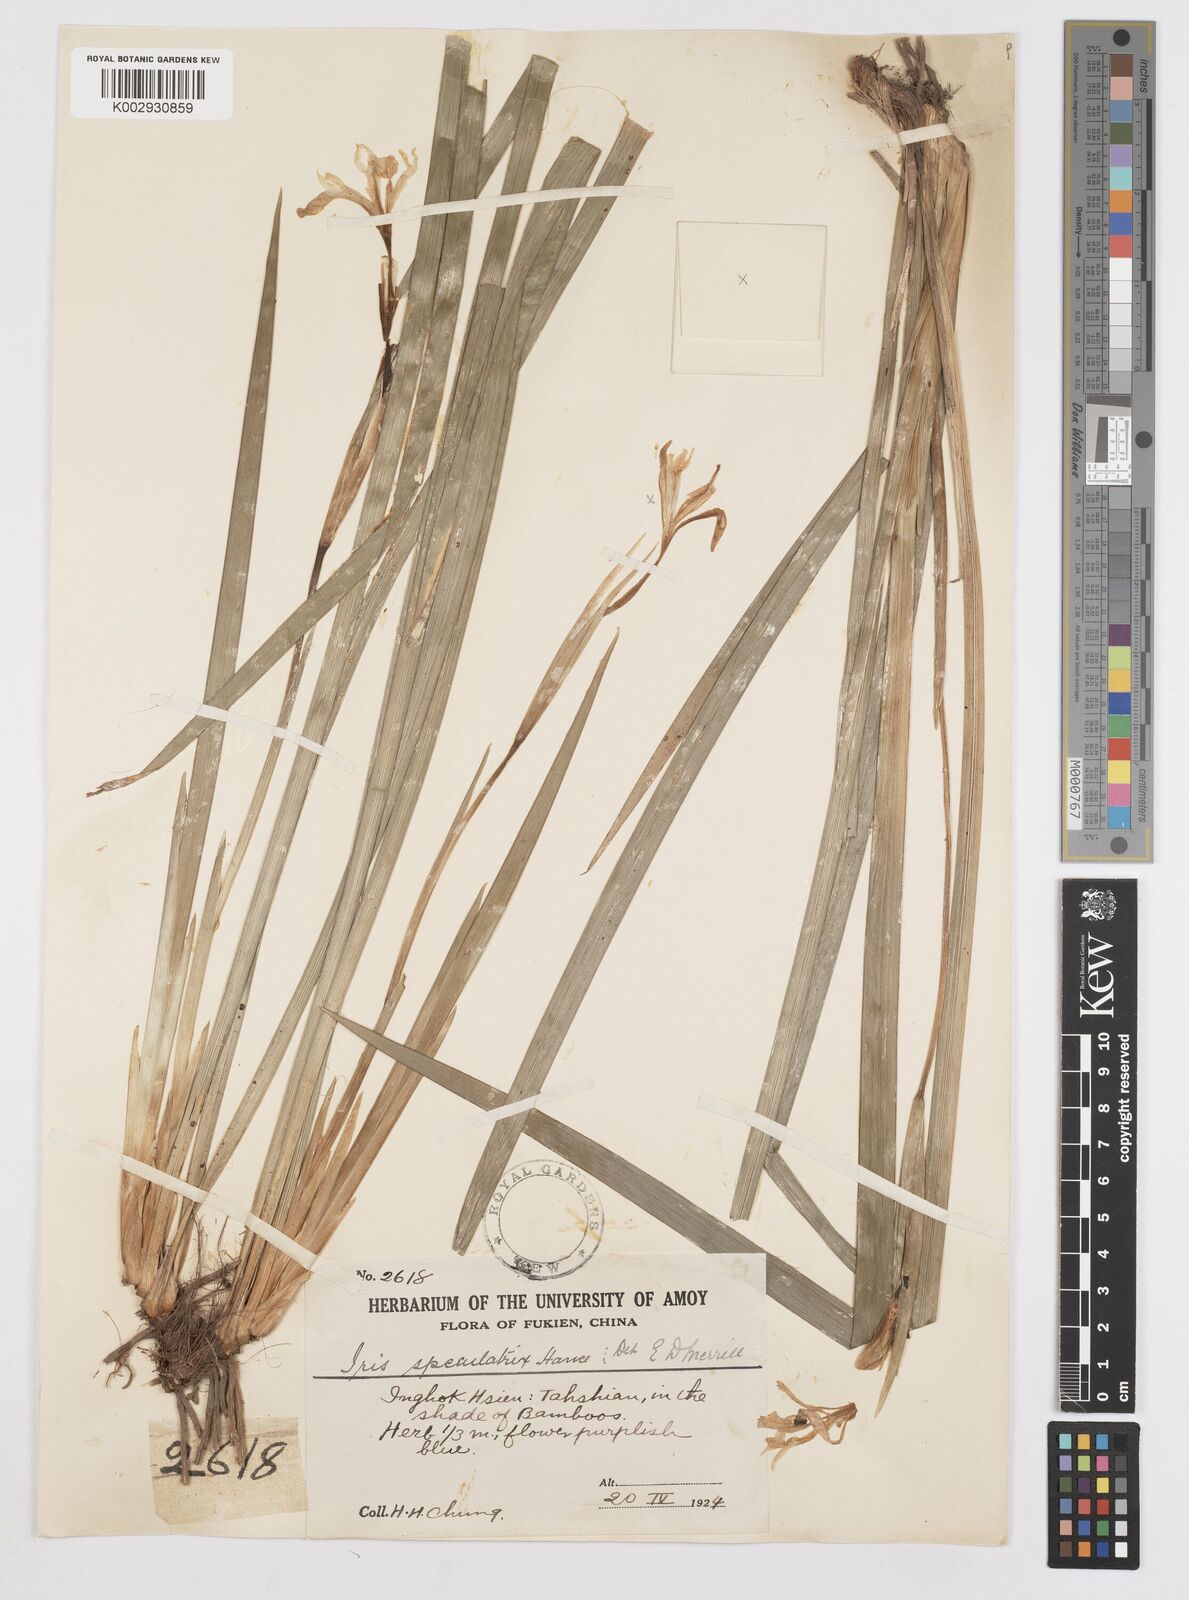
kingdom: Plantae
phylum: Tracheophyta
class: Liliopsida
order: Asparagales
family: Iridaceae
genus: Iris
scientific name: Iris speculatrix
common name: Small-flower iris
